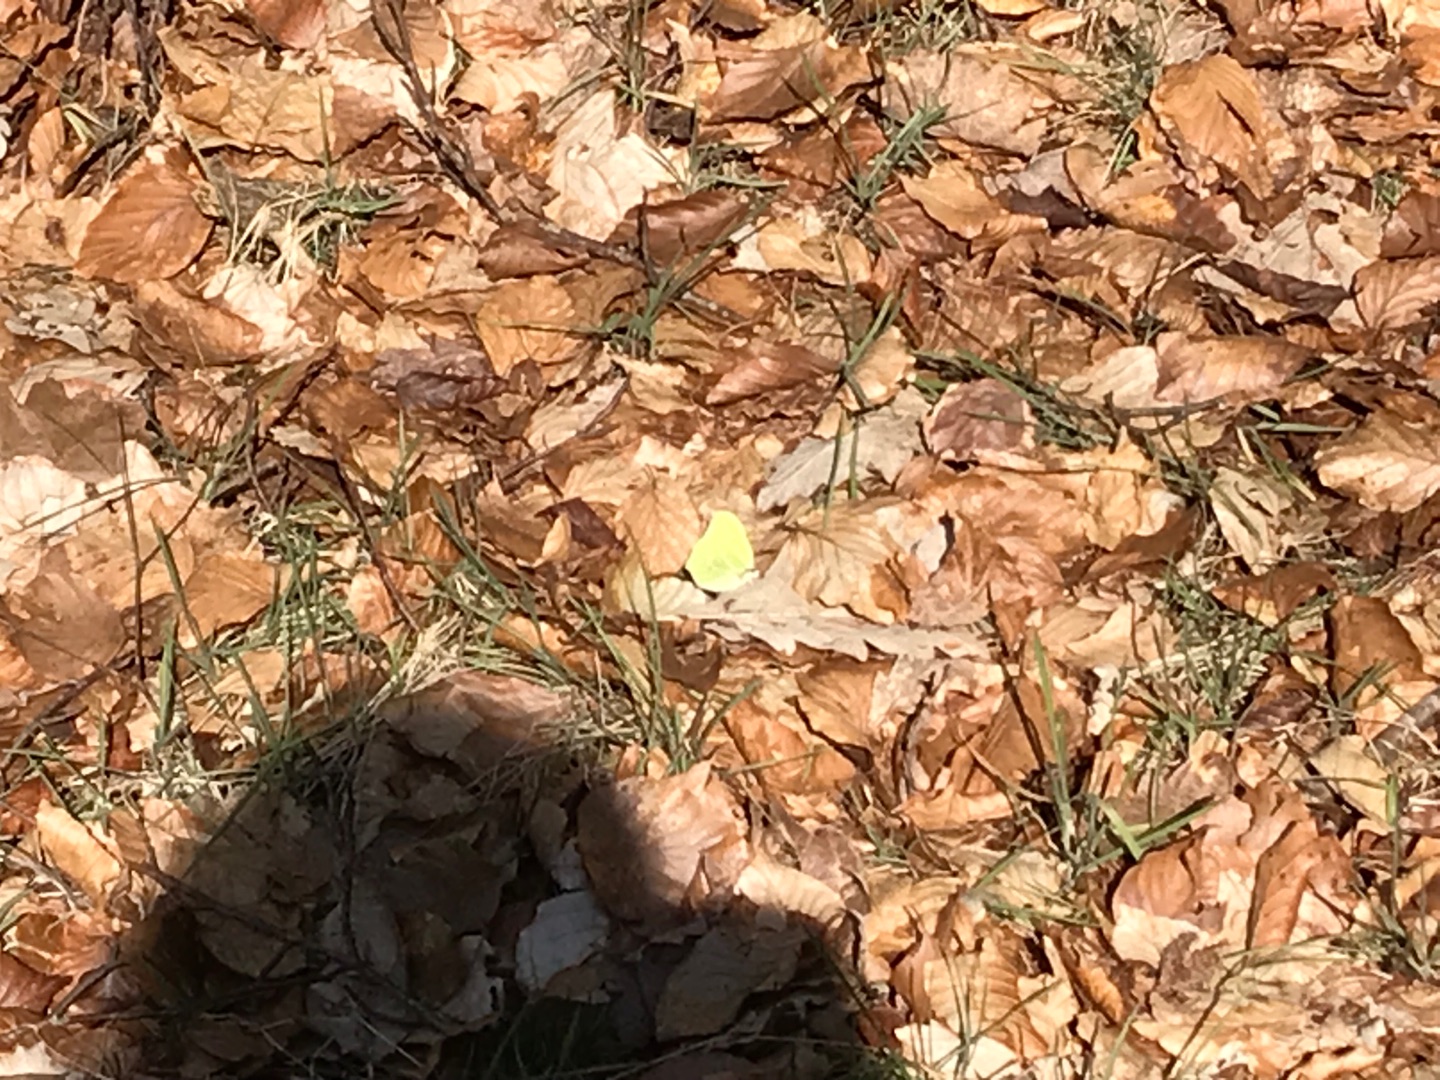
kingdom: Animalia
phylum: Arthropoda
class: Insecta
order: Lepidoptera
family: Pieridae
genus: Gonepteryx
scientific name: Gonepteryx rhamni
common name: Citronsommerfugl
